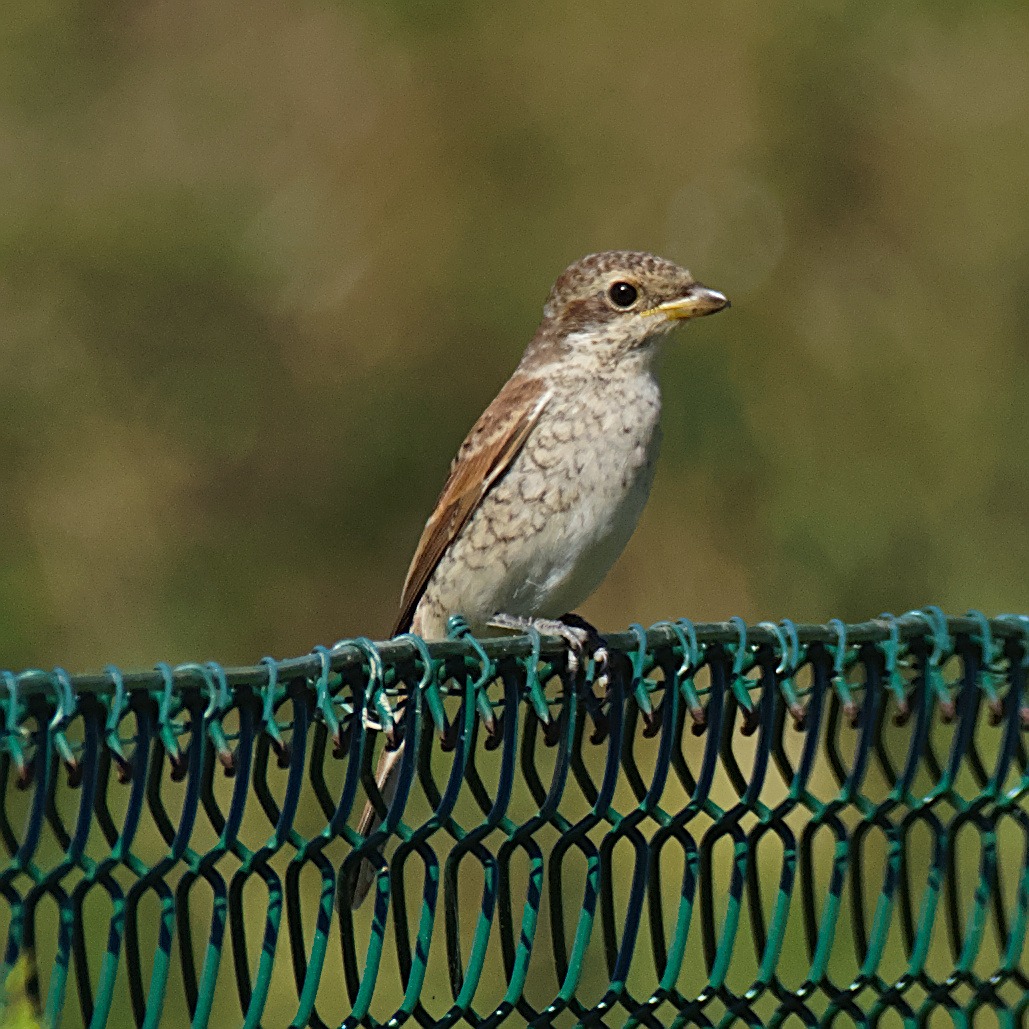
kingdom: Animalia
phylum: Chordata
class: Aves
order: Passeriformes
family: Laniidae
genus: Lanius
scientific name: Lanius collurio
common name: Rødrygget tornskade
